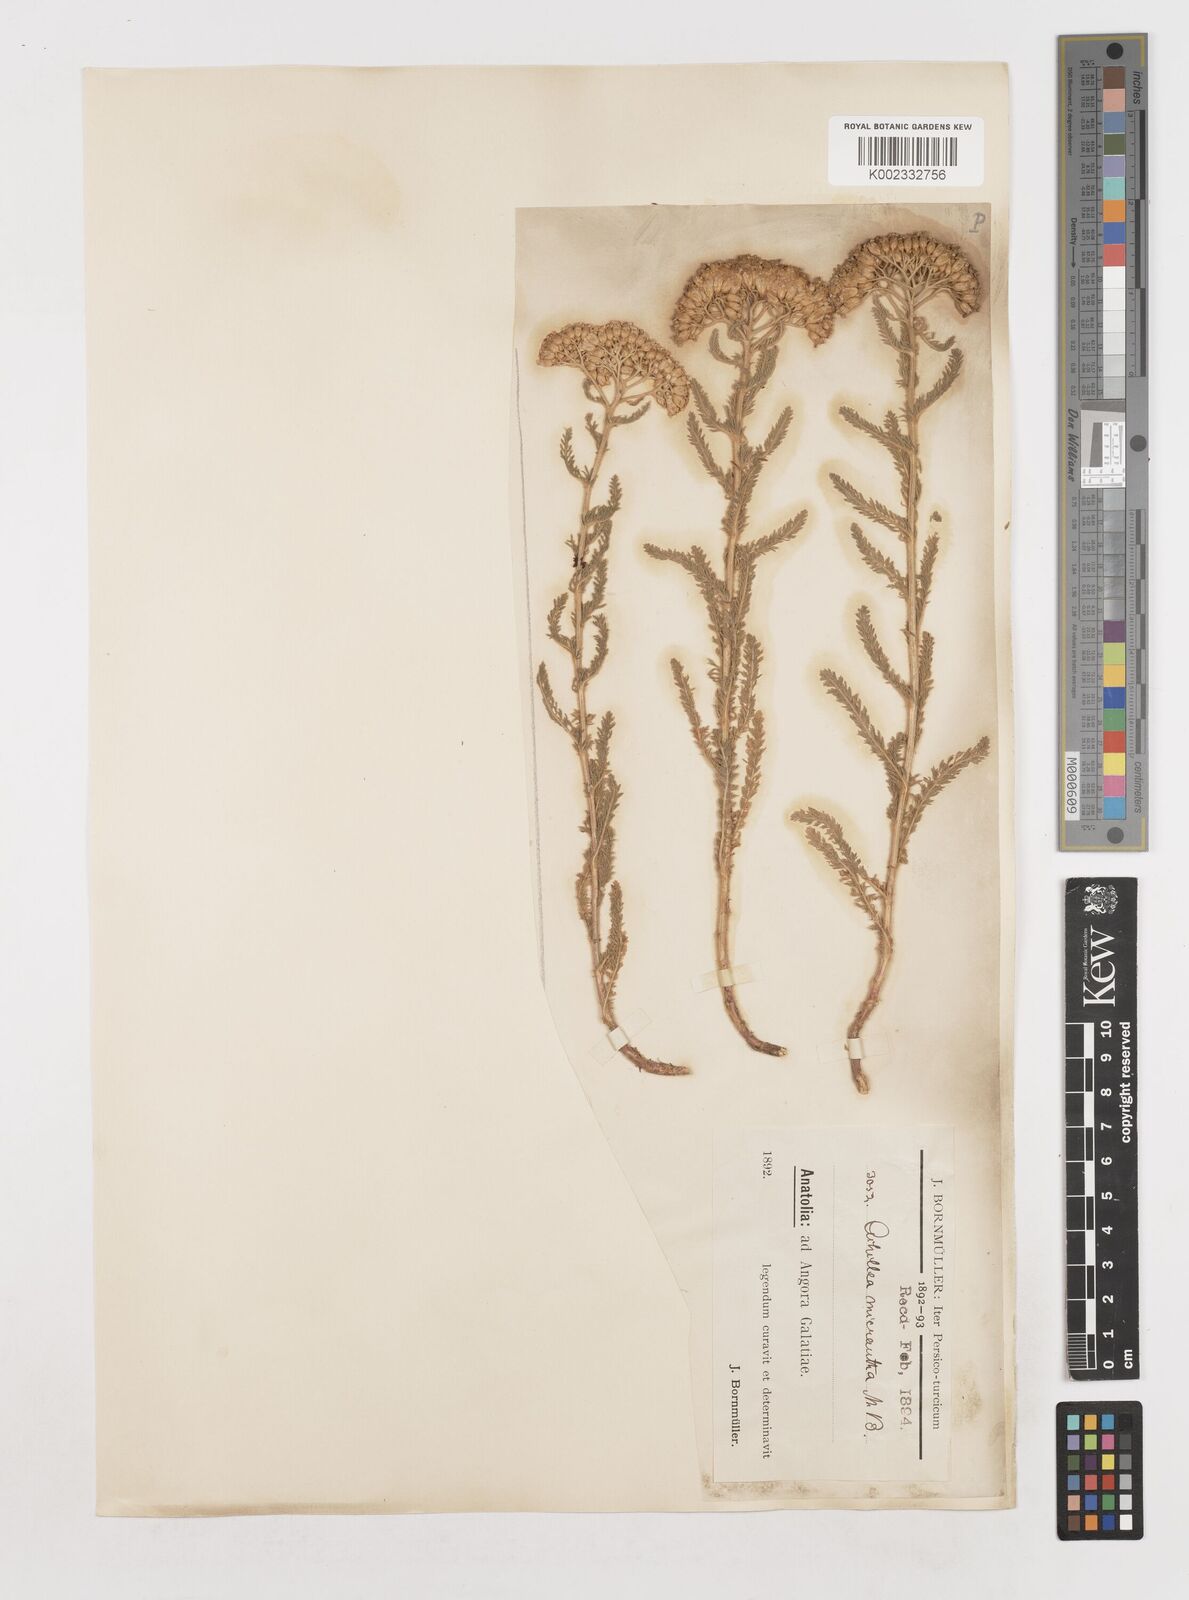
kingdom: Plantae
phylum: Tracheophyta
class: Magnoliopsida
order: Asterales
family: Asteraceae
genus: Achillea
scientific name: Achillea micrantha
